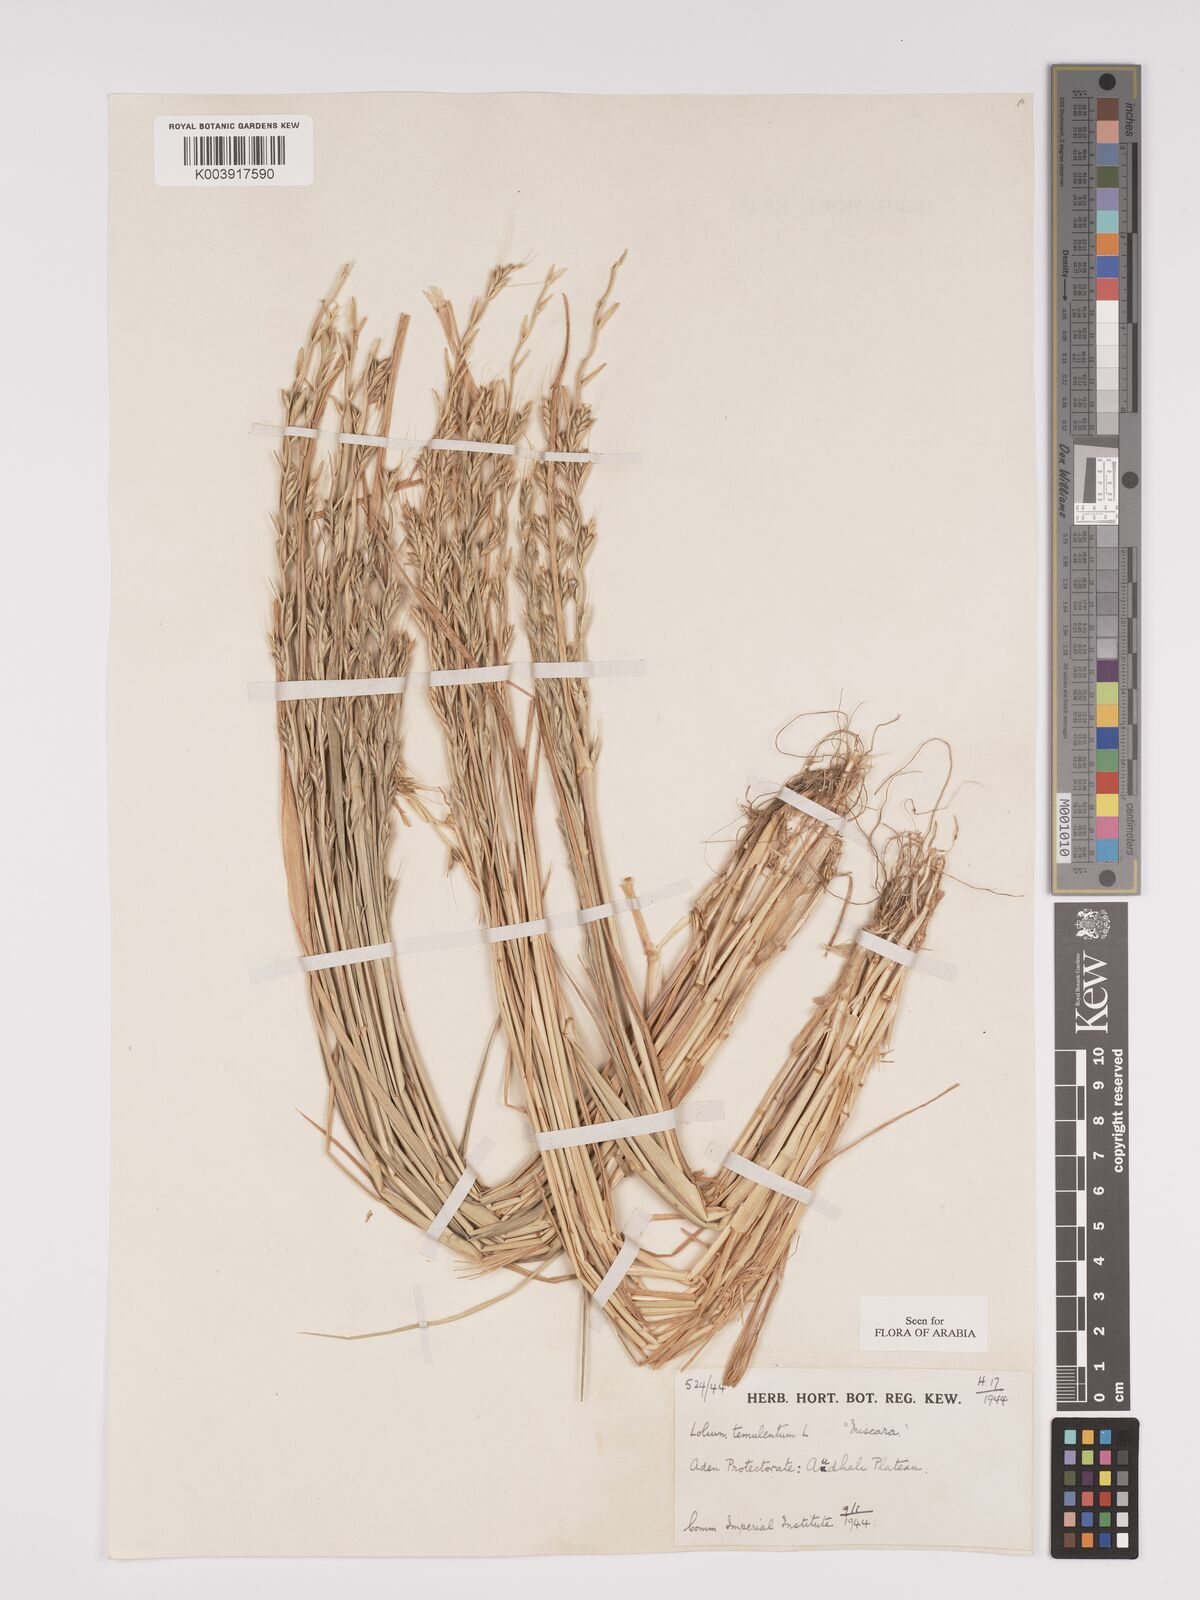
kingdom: Plantae
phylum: Tracheophyta
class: Liliopsida
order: Poales
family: Poaceae
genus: Lolium
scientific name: Lolium temulentum
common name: Darnel
